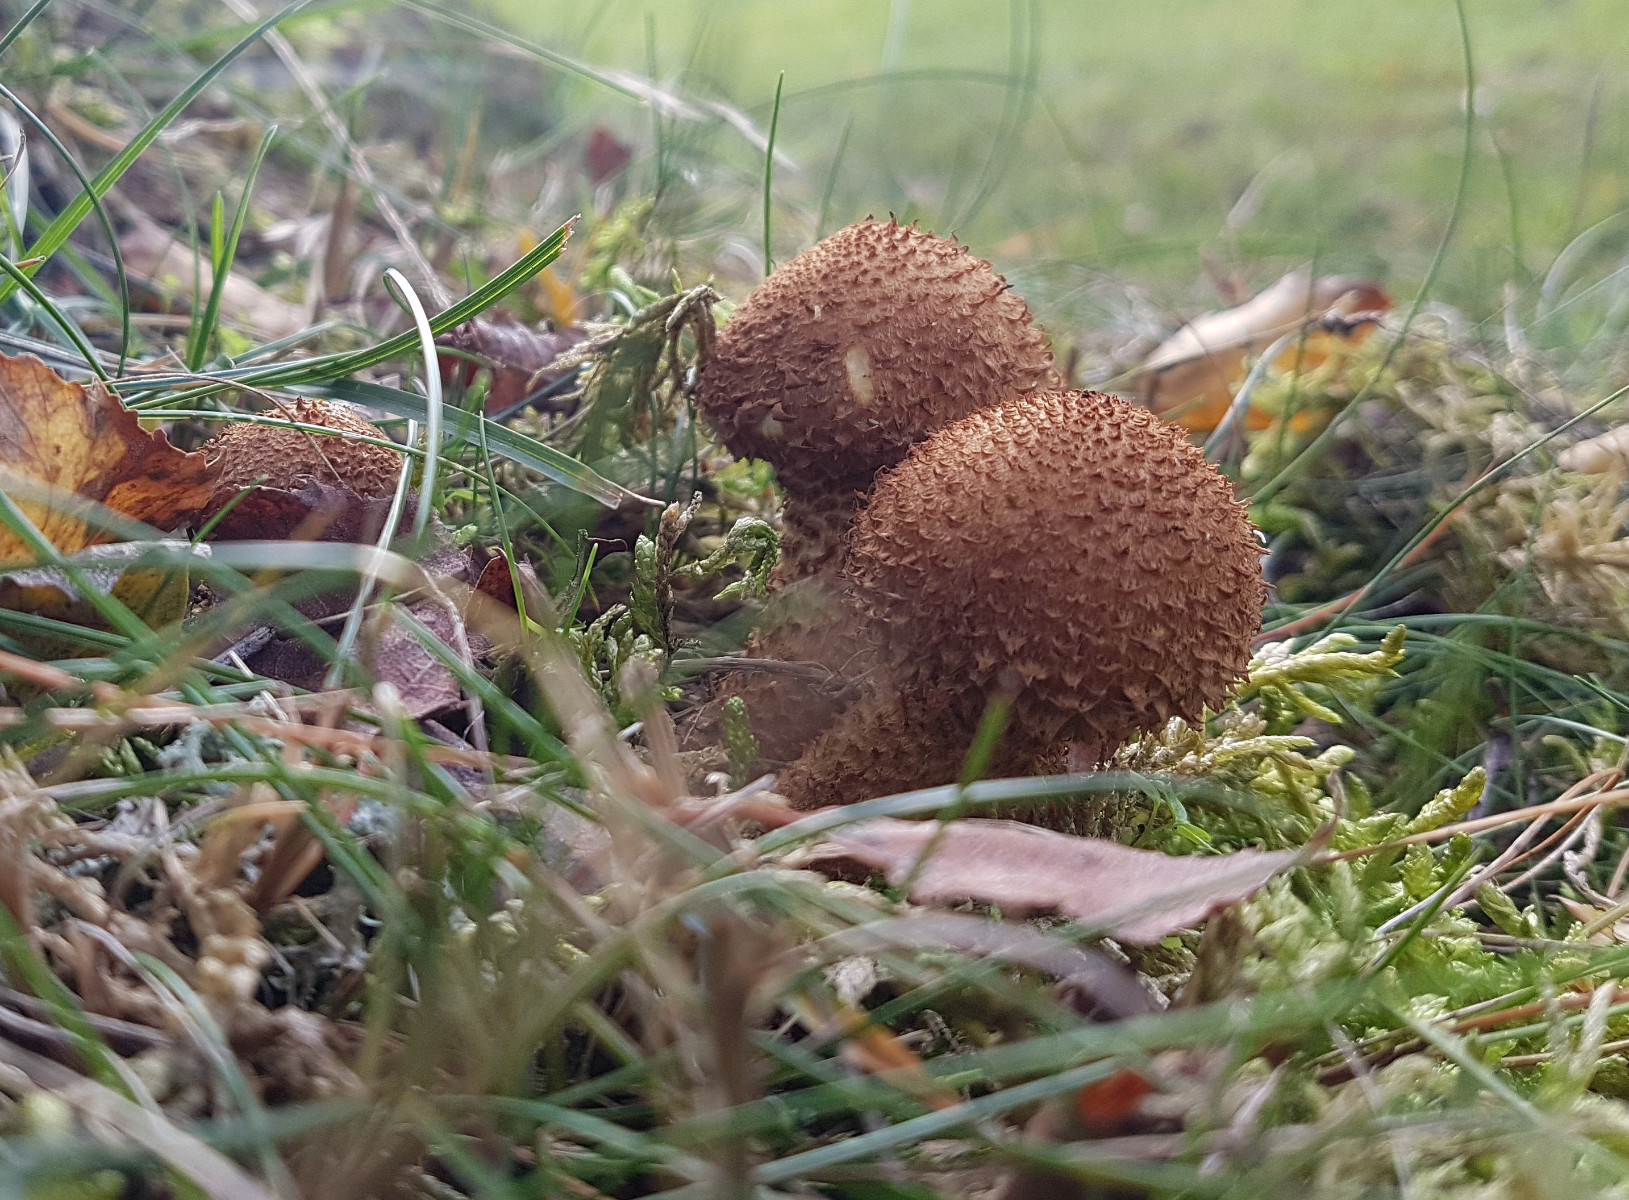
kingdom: Fungi
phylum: Basidiomycota
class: Agaricomycetes
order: Agaricales
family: Strophariaceae
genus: Pholiota
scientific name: Pholiota squarrosa
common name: krumskællet skælhat
